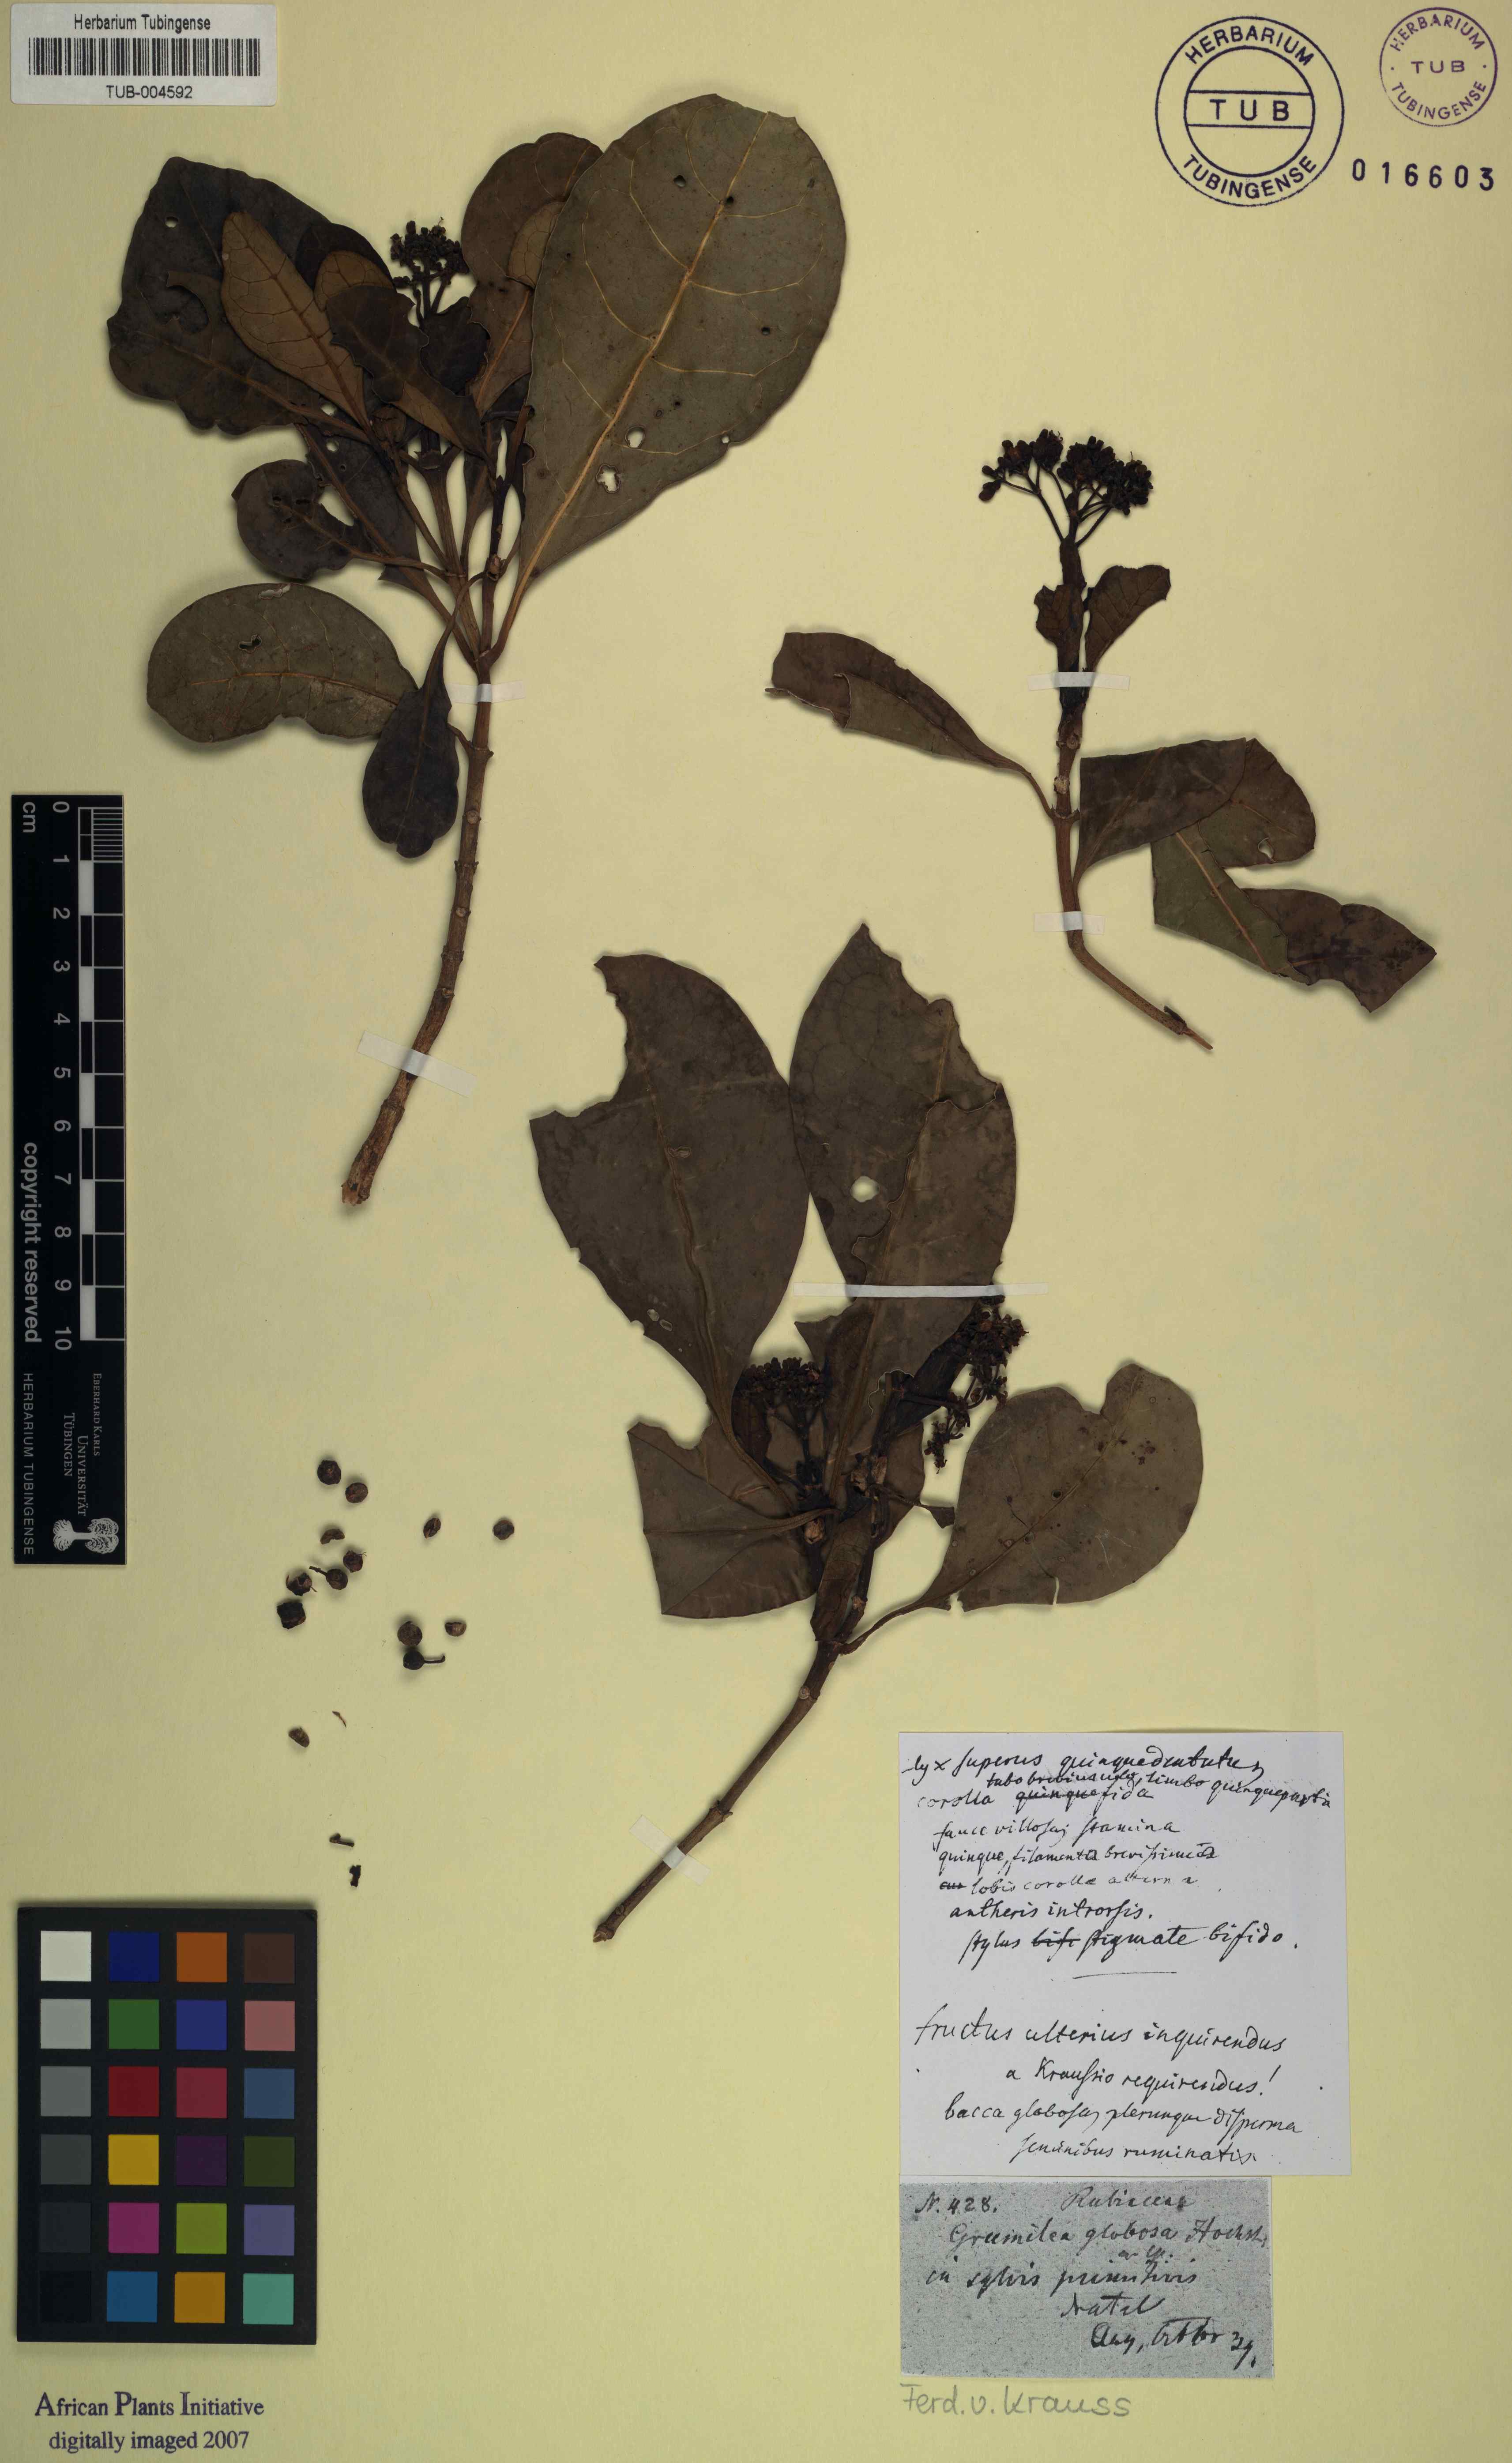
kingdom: Plantae
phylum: Tracheophyta
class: Magnoliopsida
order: Gentianales
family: Rubiaceae
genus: Psychotria
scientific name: Psychotria capensis
